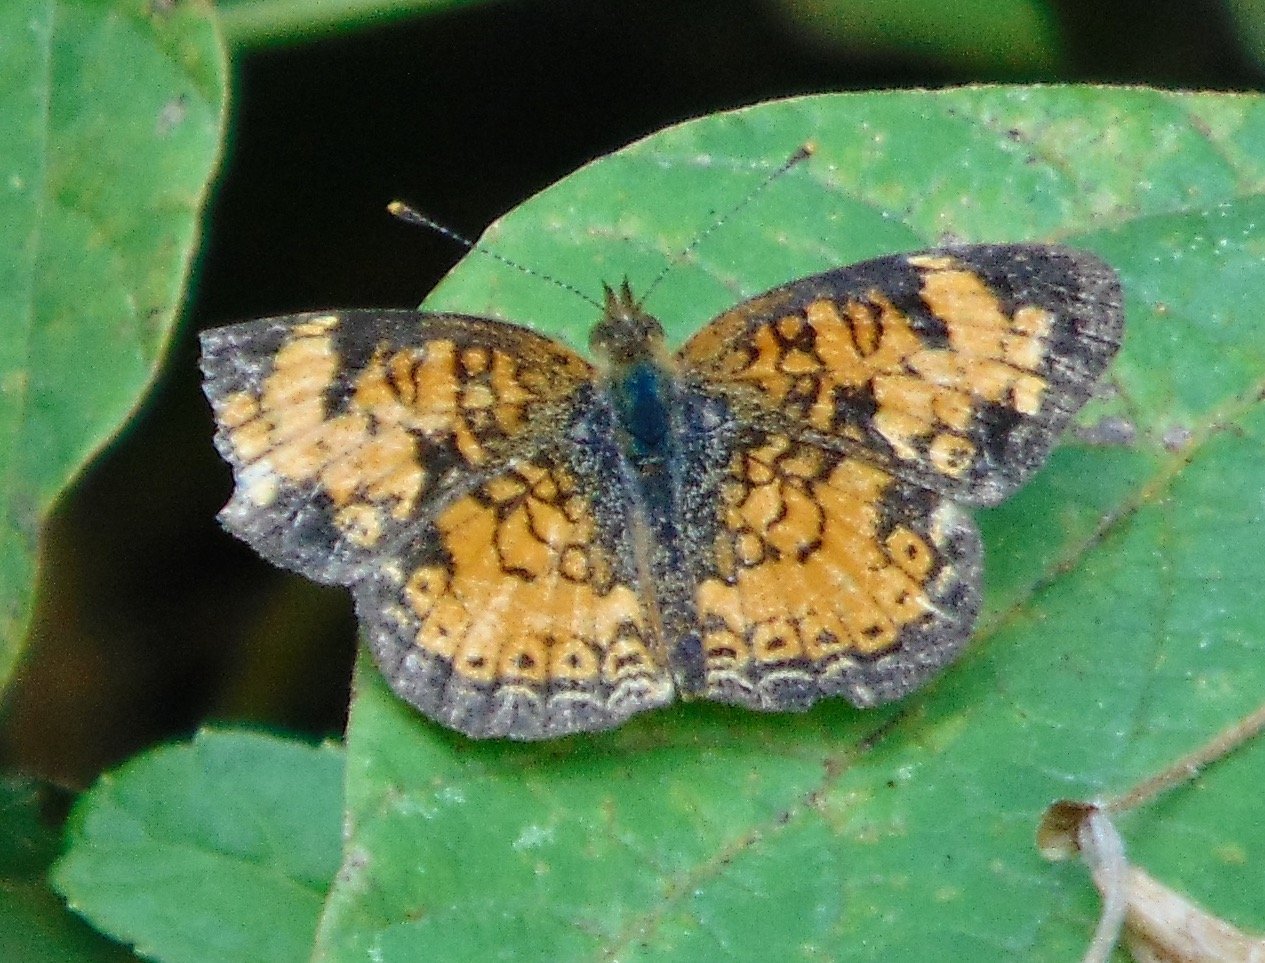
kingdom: Animalia
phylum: Arthropoda
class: Insecta
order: Lepidoptera
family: Nymphalidae
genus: Phyciodes
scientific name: Phyciodes tharos
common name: Pearl Crescent
